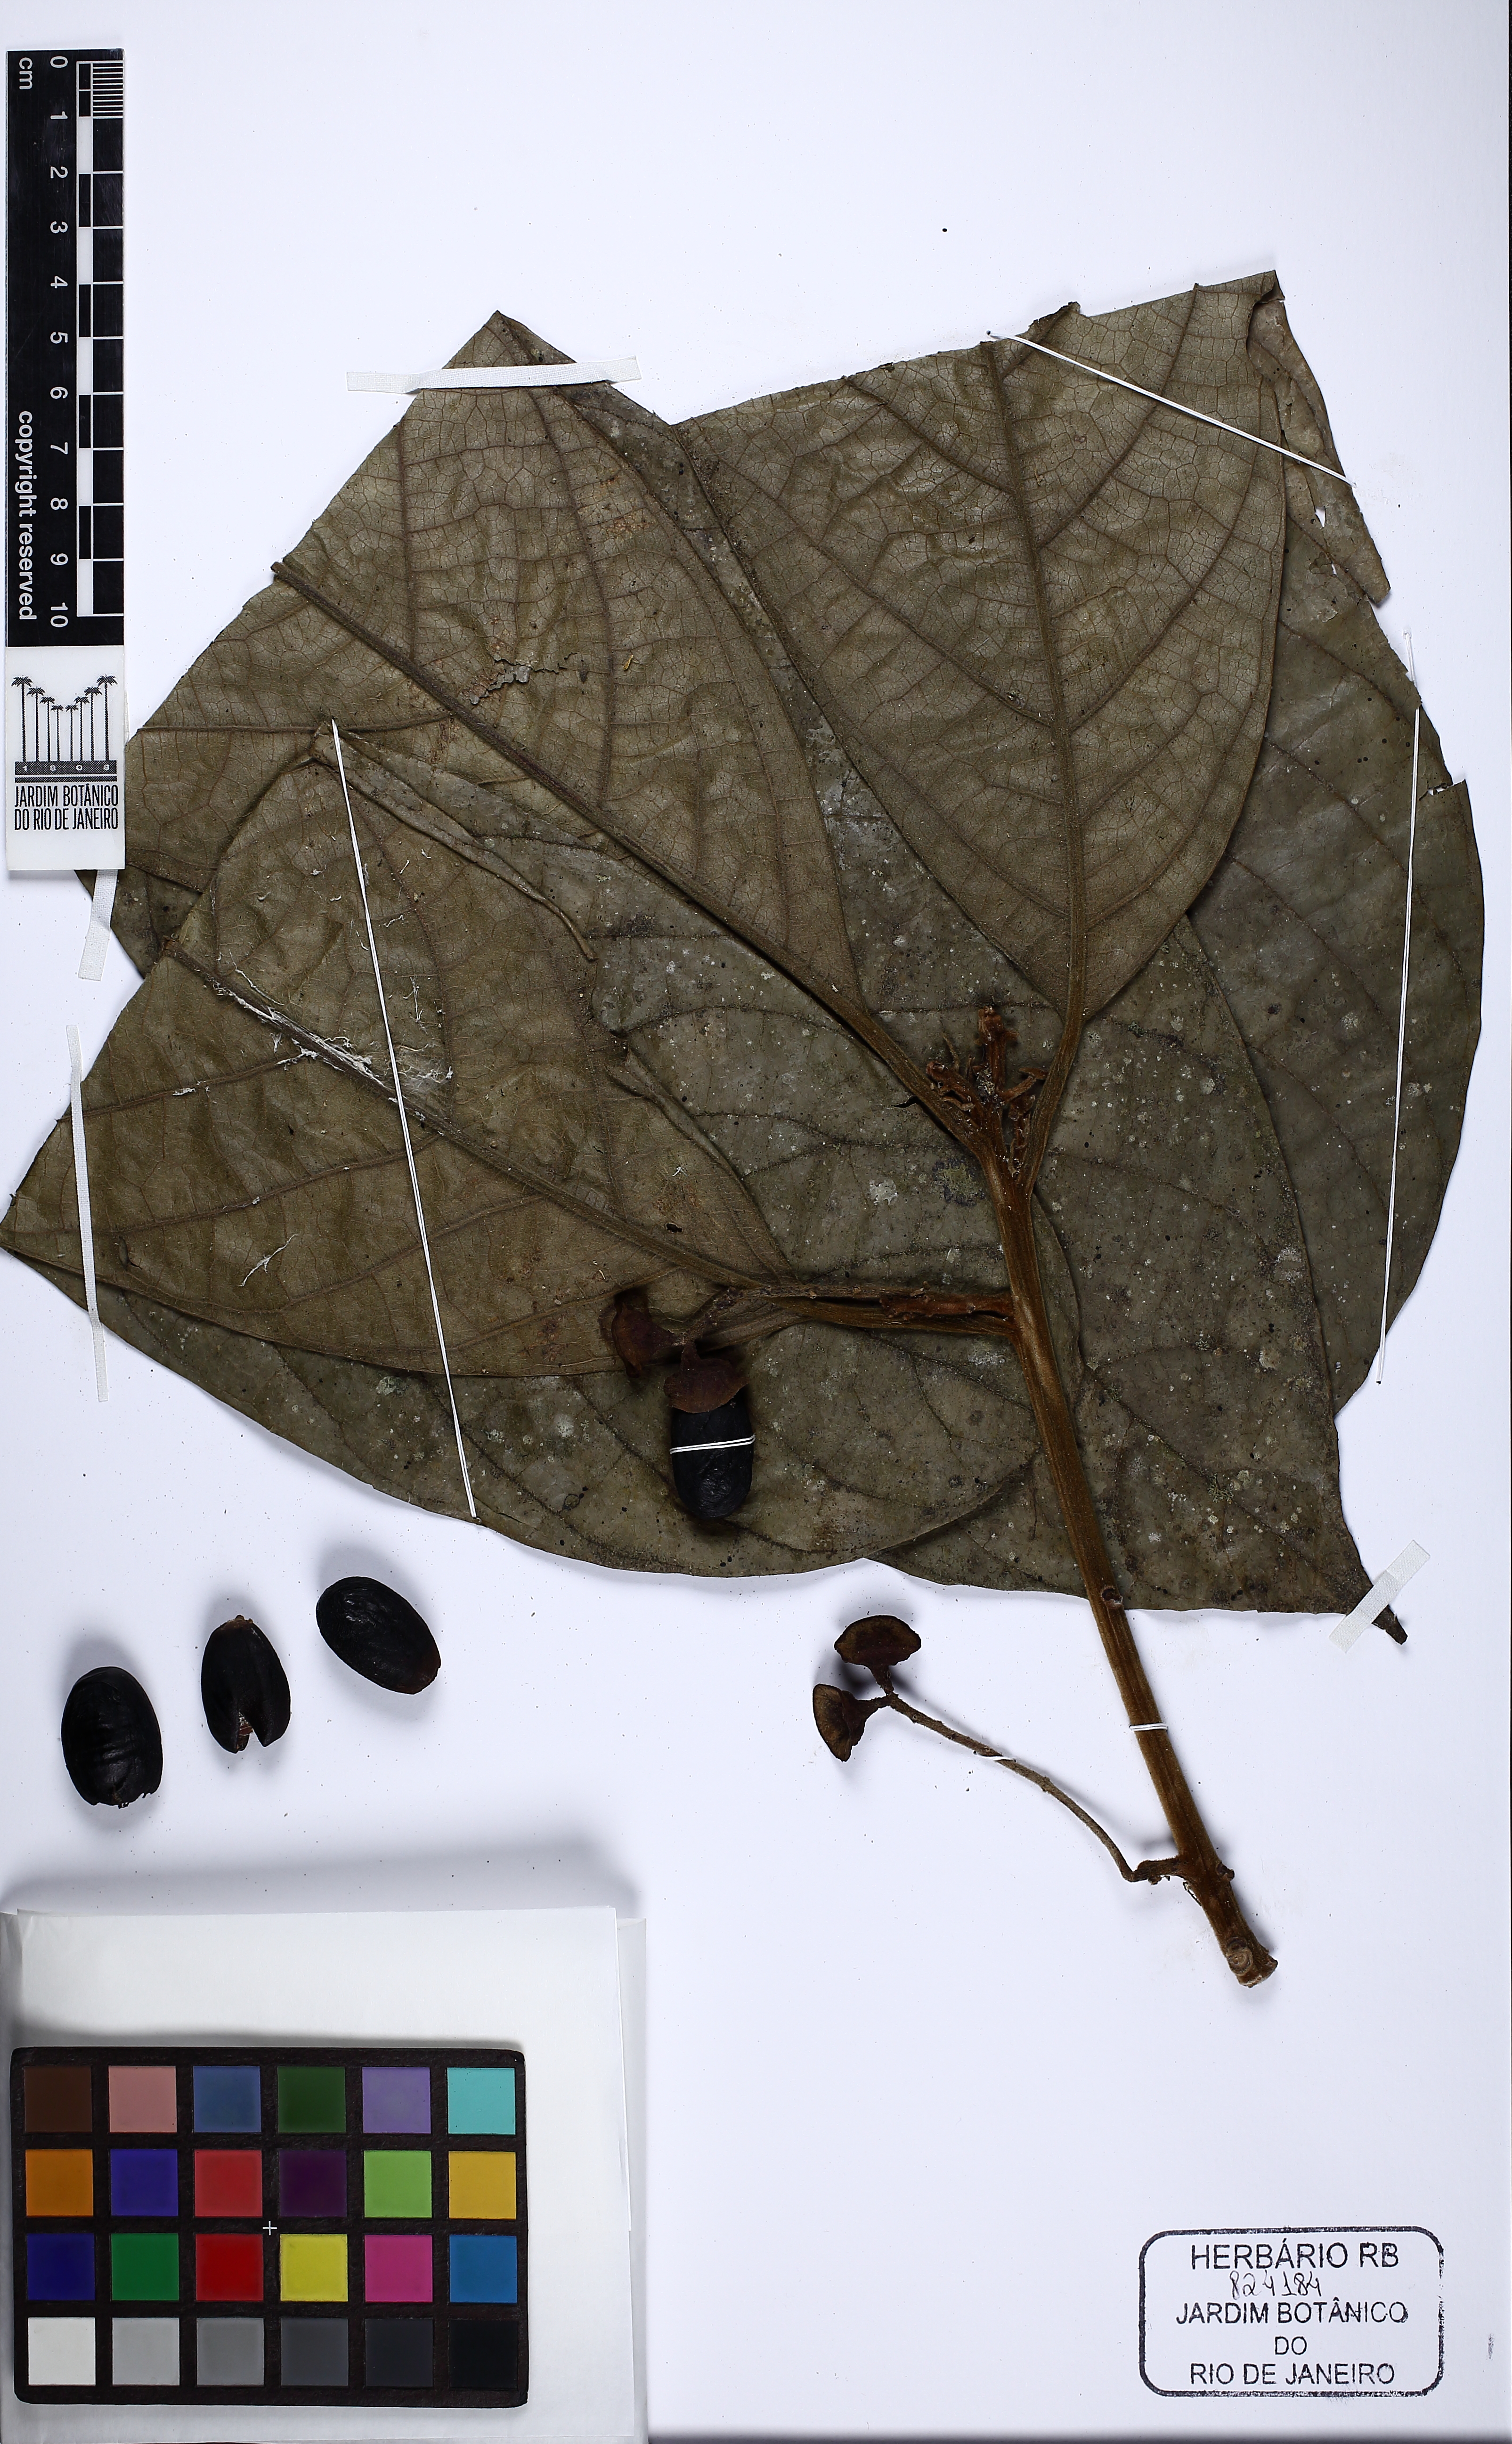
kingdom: Plantae
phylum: Tracheophyta
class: Magnoliopsida
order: Laurales
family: Lauraceae
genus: Endlicheria
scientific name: Endlicheria paniculata
